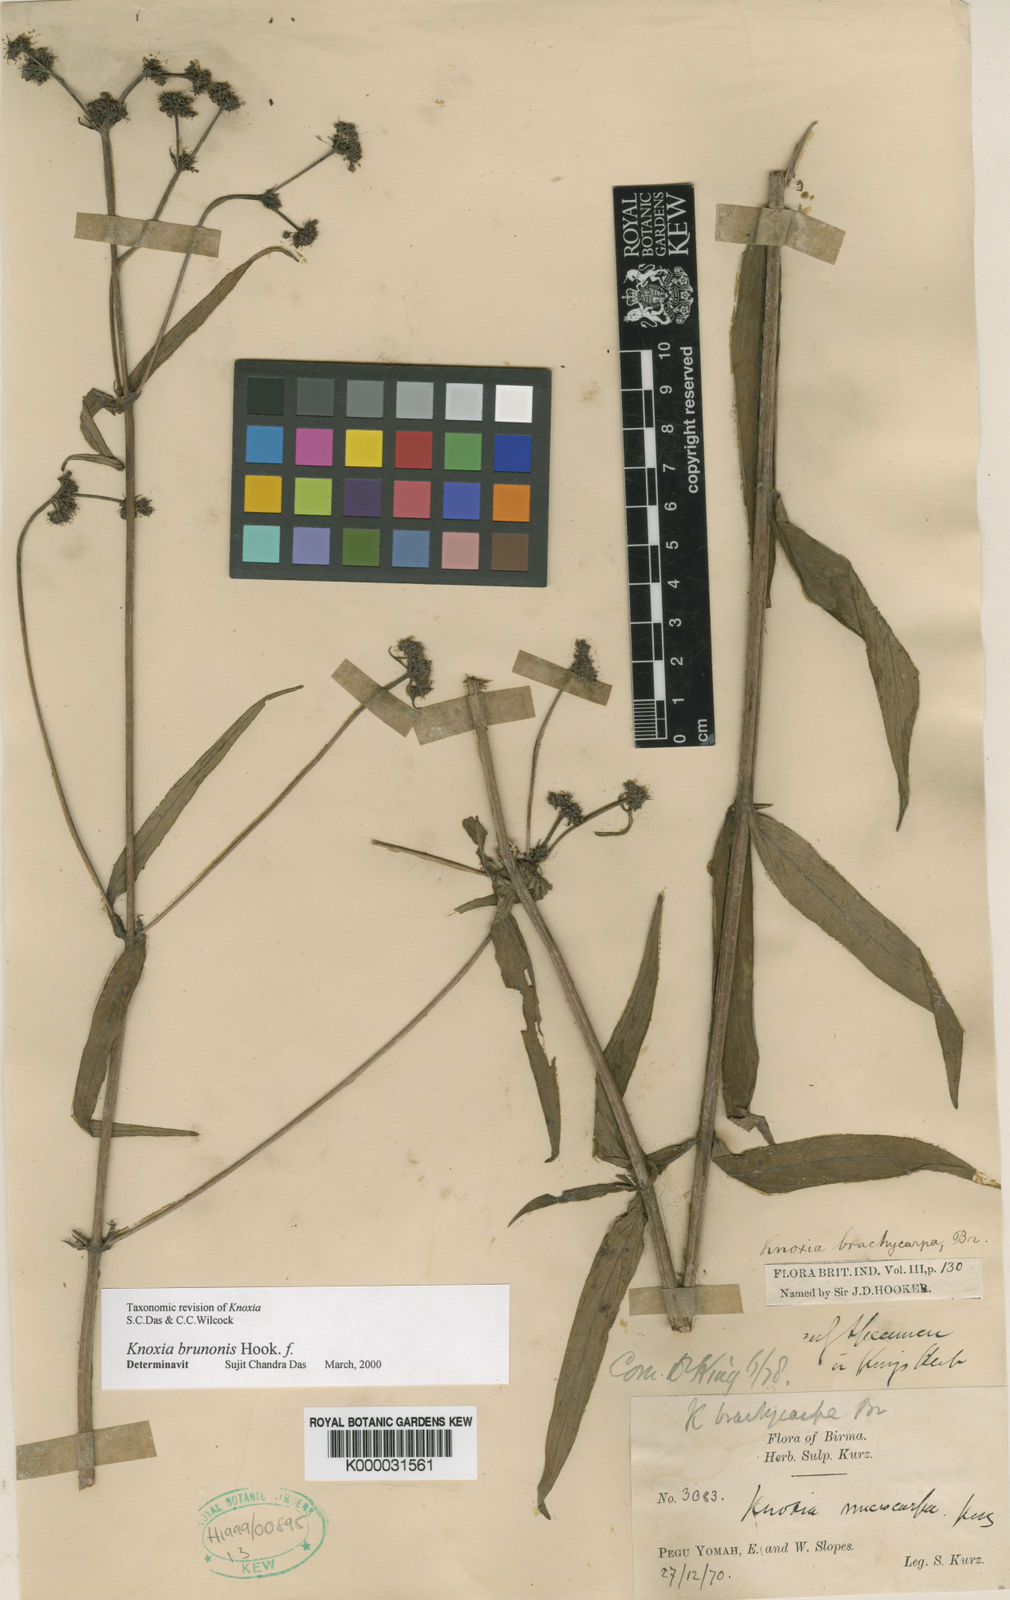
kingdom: Plantae
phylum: Tracheophyta
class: Magnoliopsida
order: Gentianales
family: Rubiaceae
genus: Knoxia
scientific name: Knoxia
